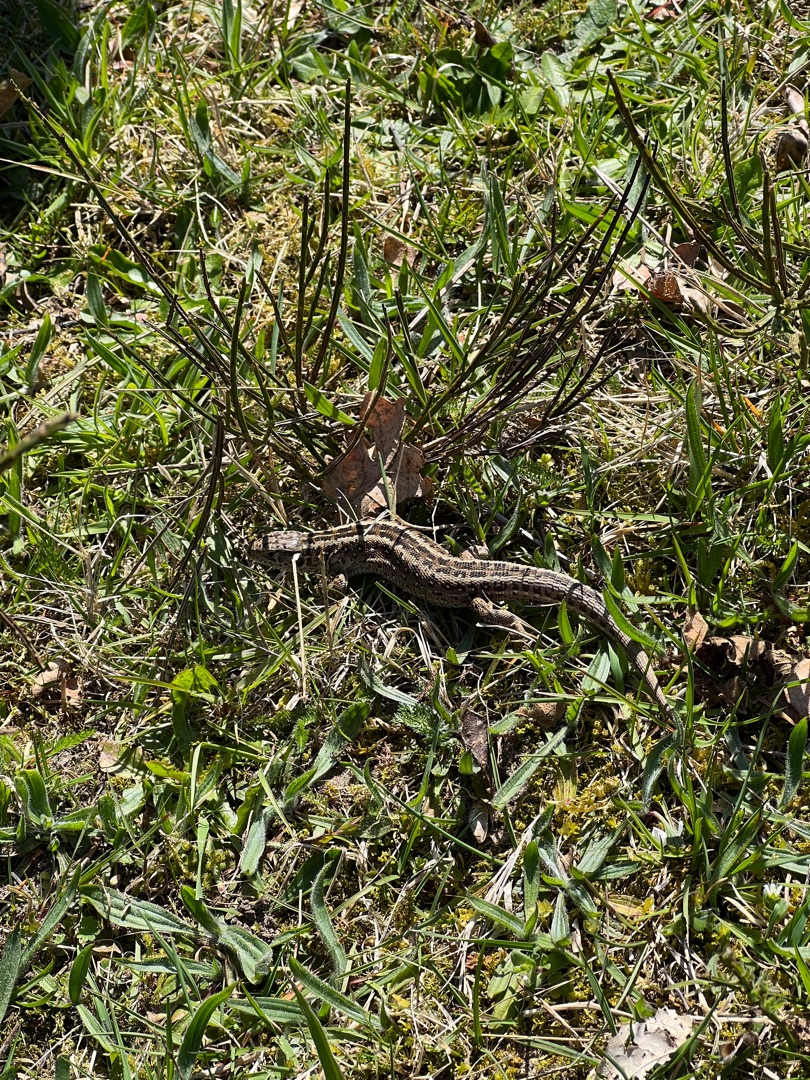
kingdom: Animalia
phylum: Chordata
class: Squamata
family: Lacertidae
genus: Lacerta
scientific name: Lacerta agilis
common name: Markfirben
